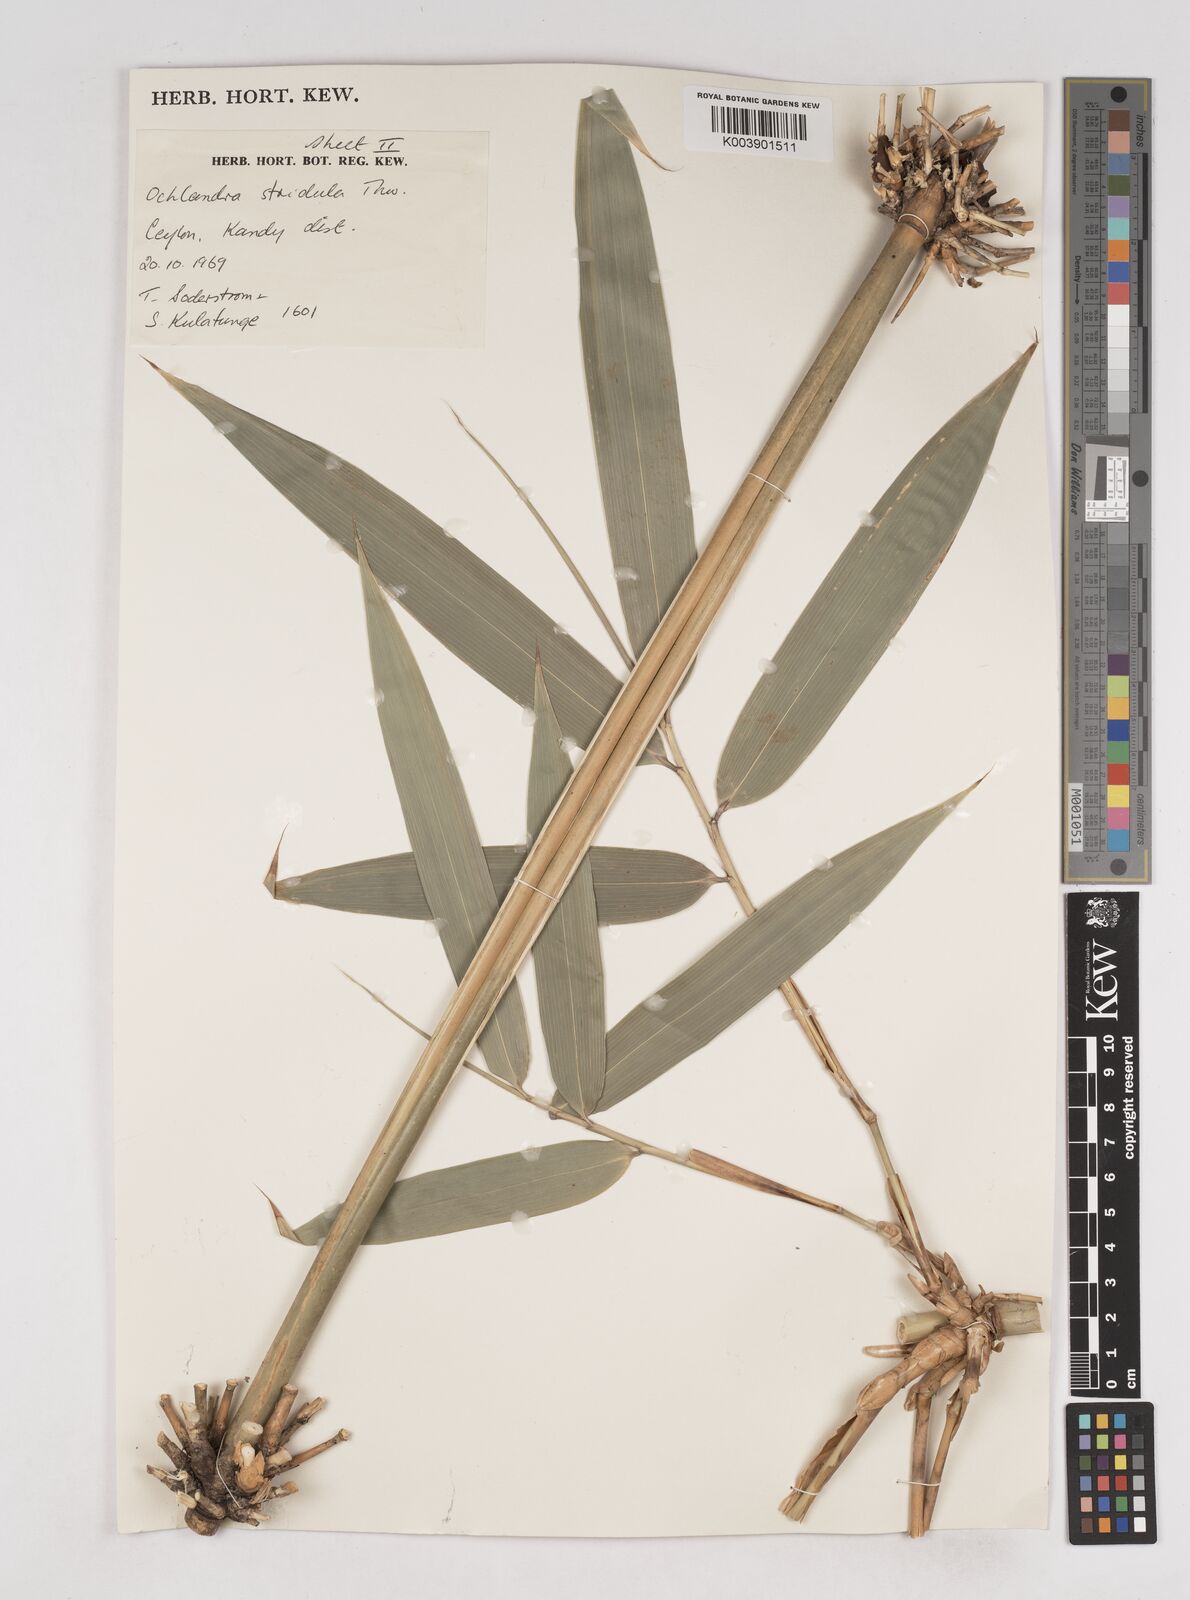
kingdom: Plantae
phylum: Tracheophyta
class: Liliopsida
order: Poales
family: Poaceae
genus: Ochlandra
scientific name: Ochlandra stridula
